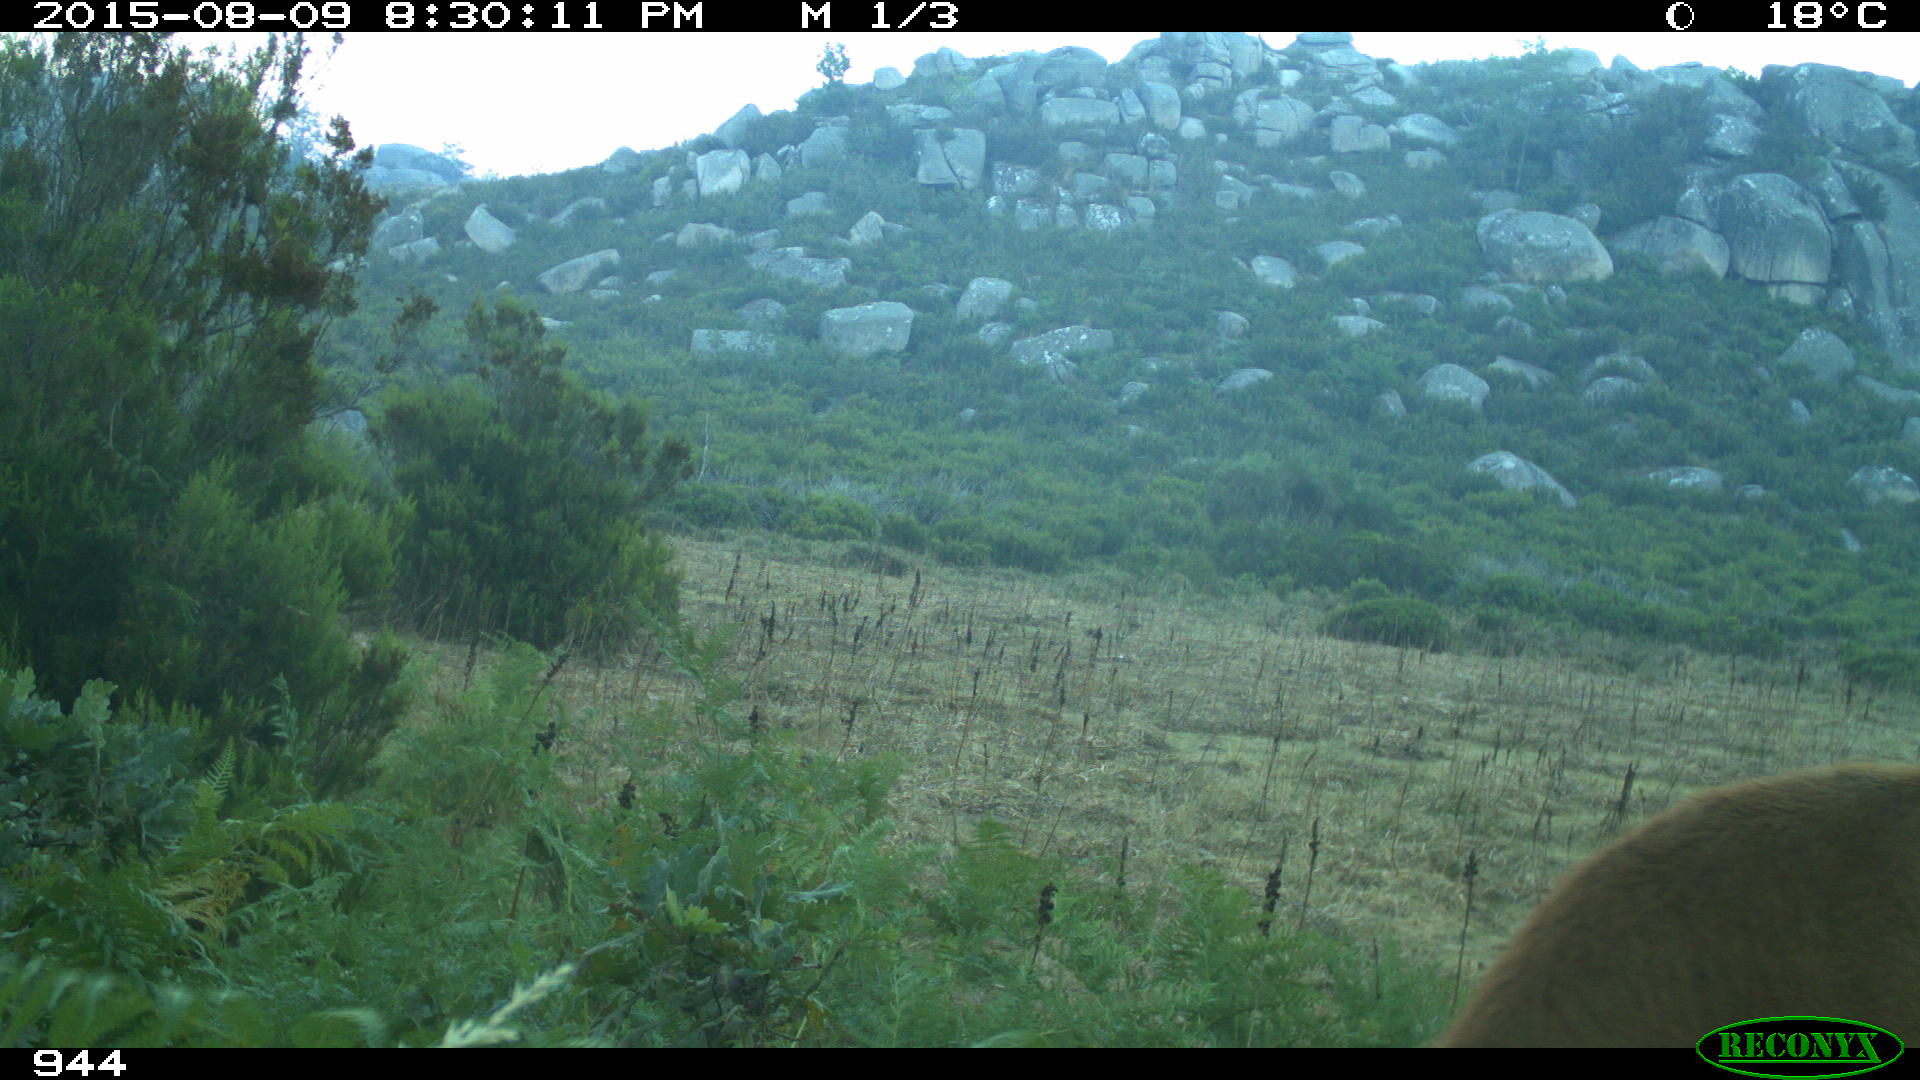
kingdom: Animalia
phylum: Chordata
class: Mammalia
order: Artiodactyla
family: Bovidae
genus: Bos
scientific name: Bos taurus
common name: Domesticated cattle
